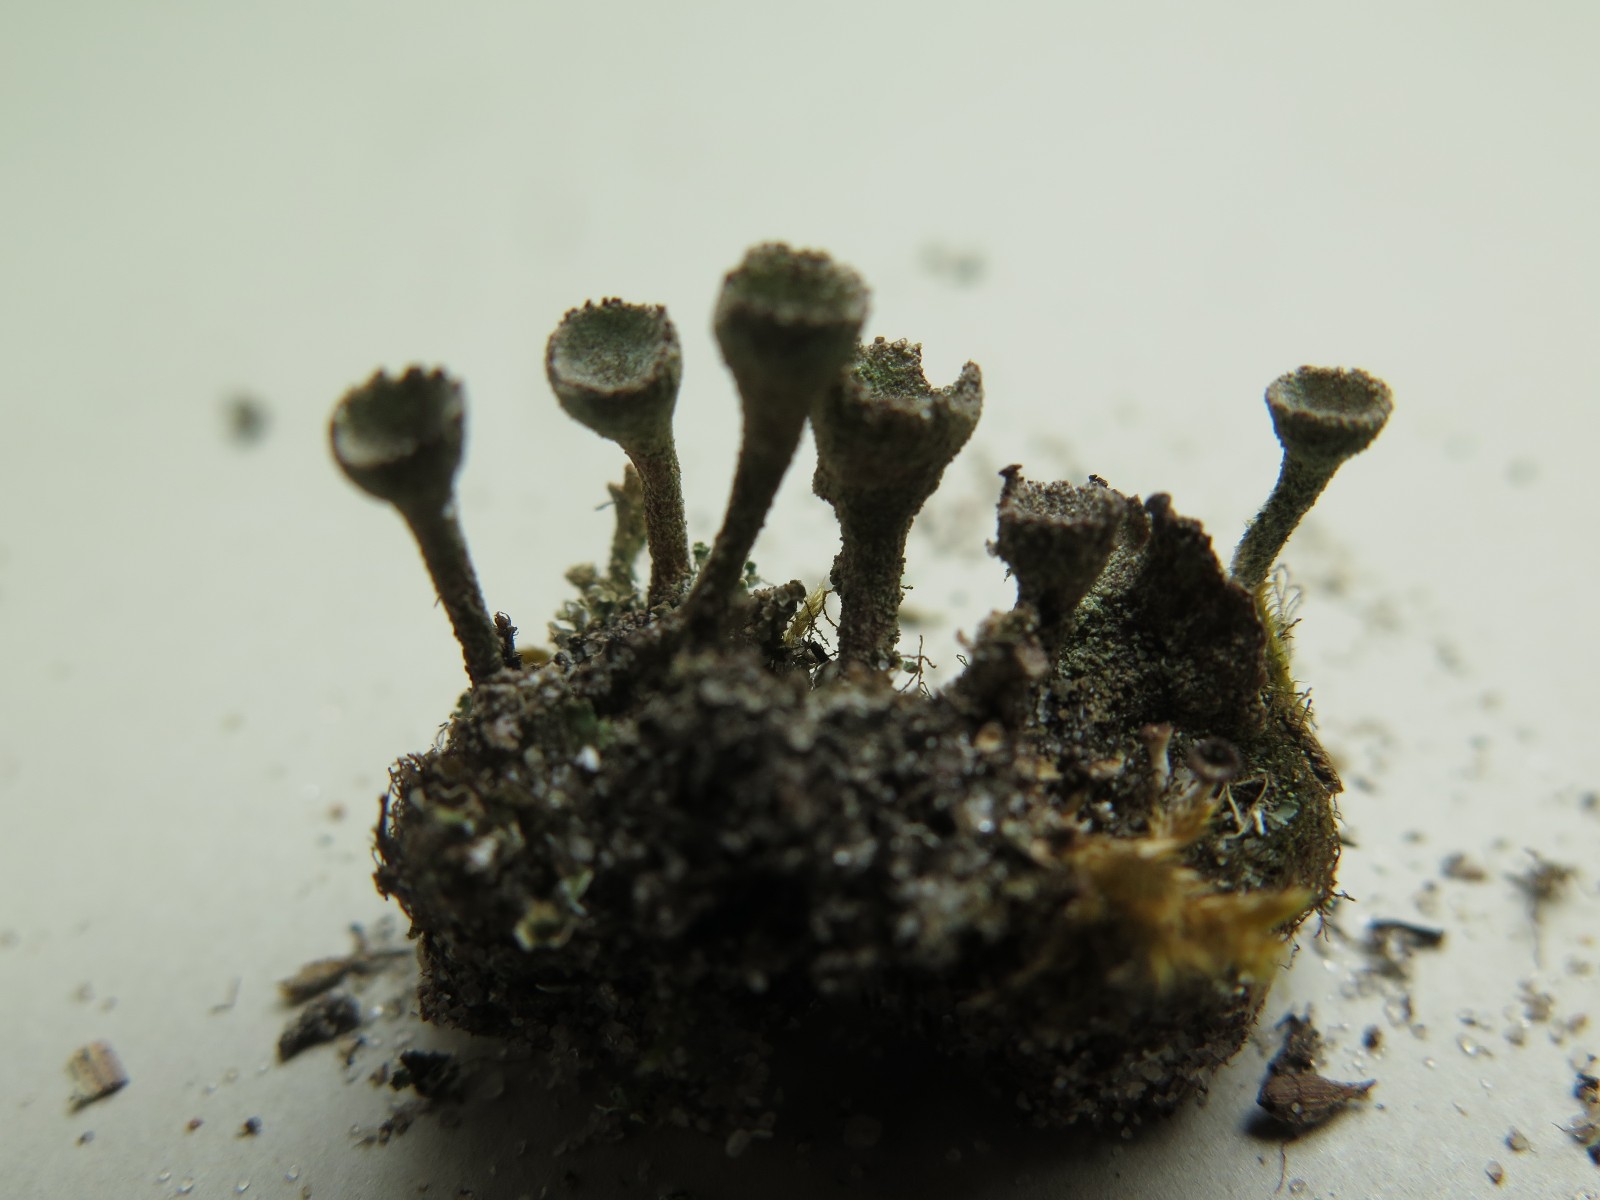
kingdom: Fungi
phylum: Ascomycota
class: Lecanoromycetes
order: Lecanorales
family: Cladoniaceae
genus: Cladonia
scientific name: Cladonia
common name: brungrøn bægerlav
